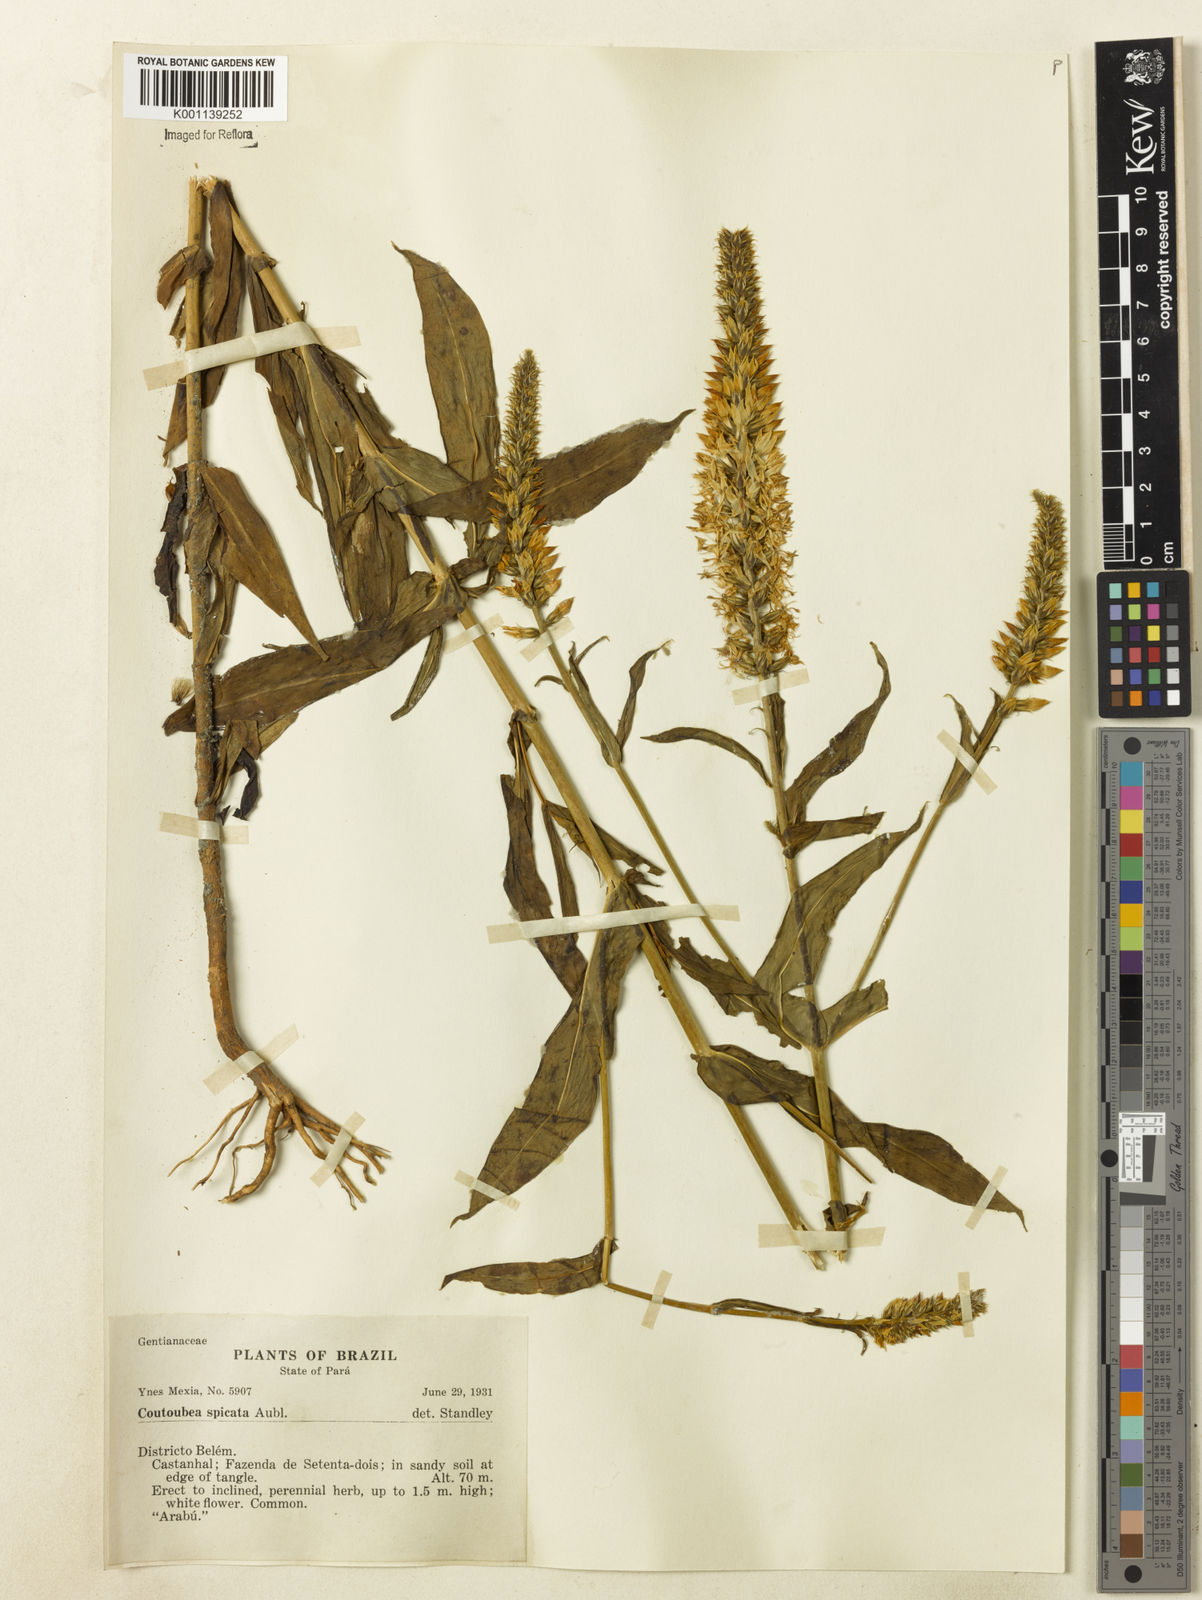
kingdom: Plantae
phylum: Tracheophyta
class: Magnoliopsida
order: Gentianales
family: Gentianaceae
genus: Coutoubea
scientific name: Coutoubea spicata
